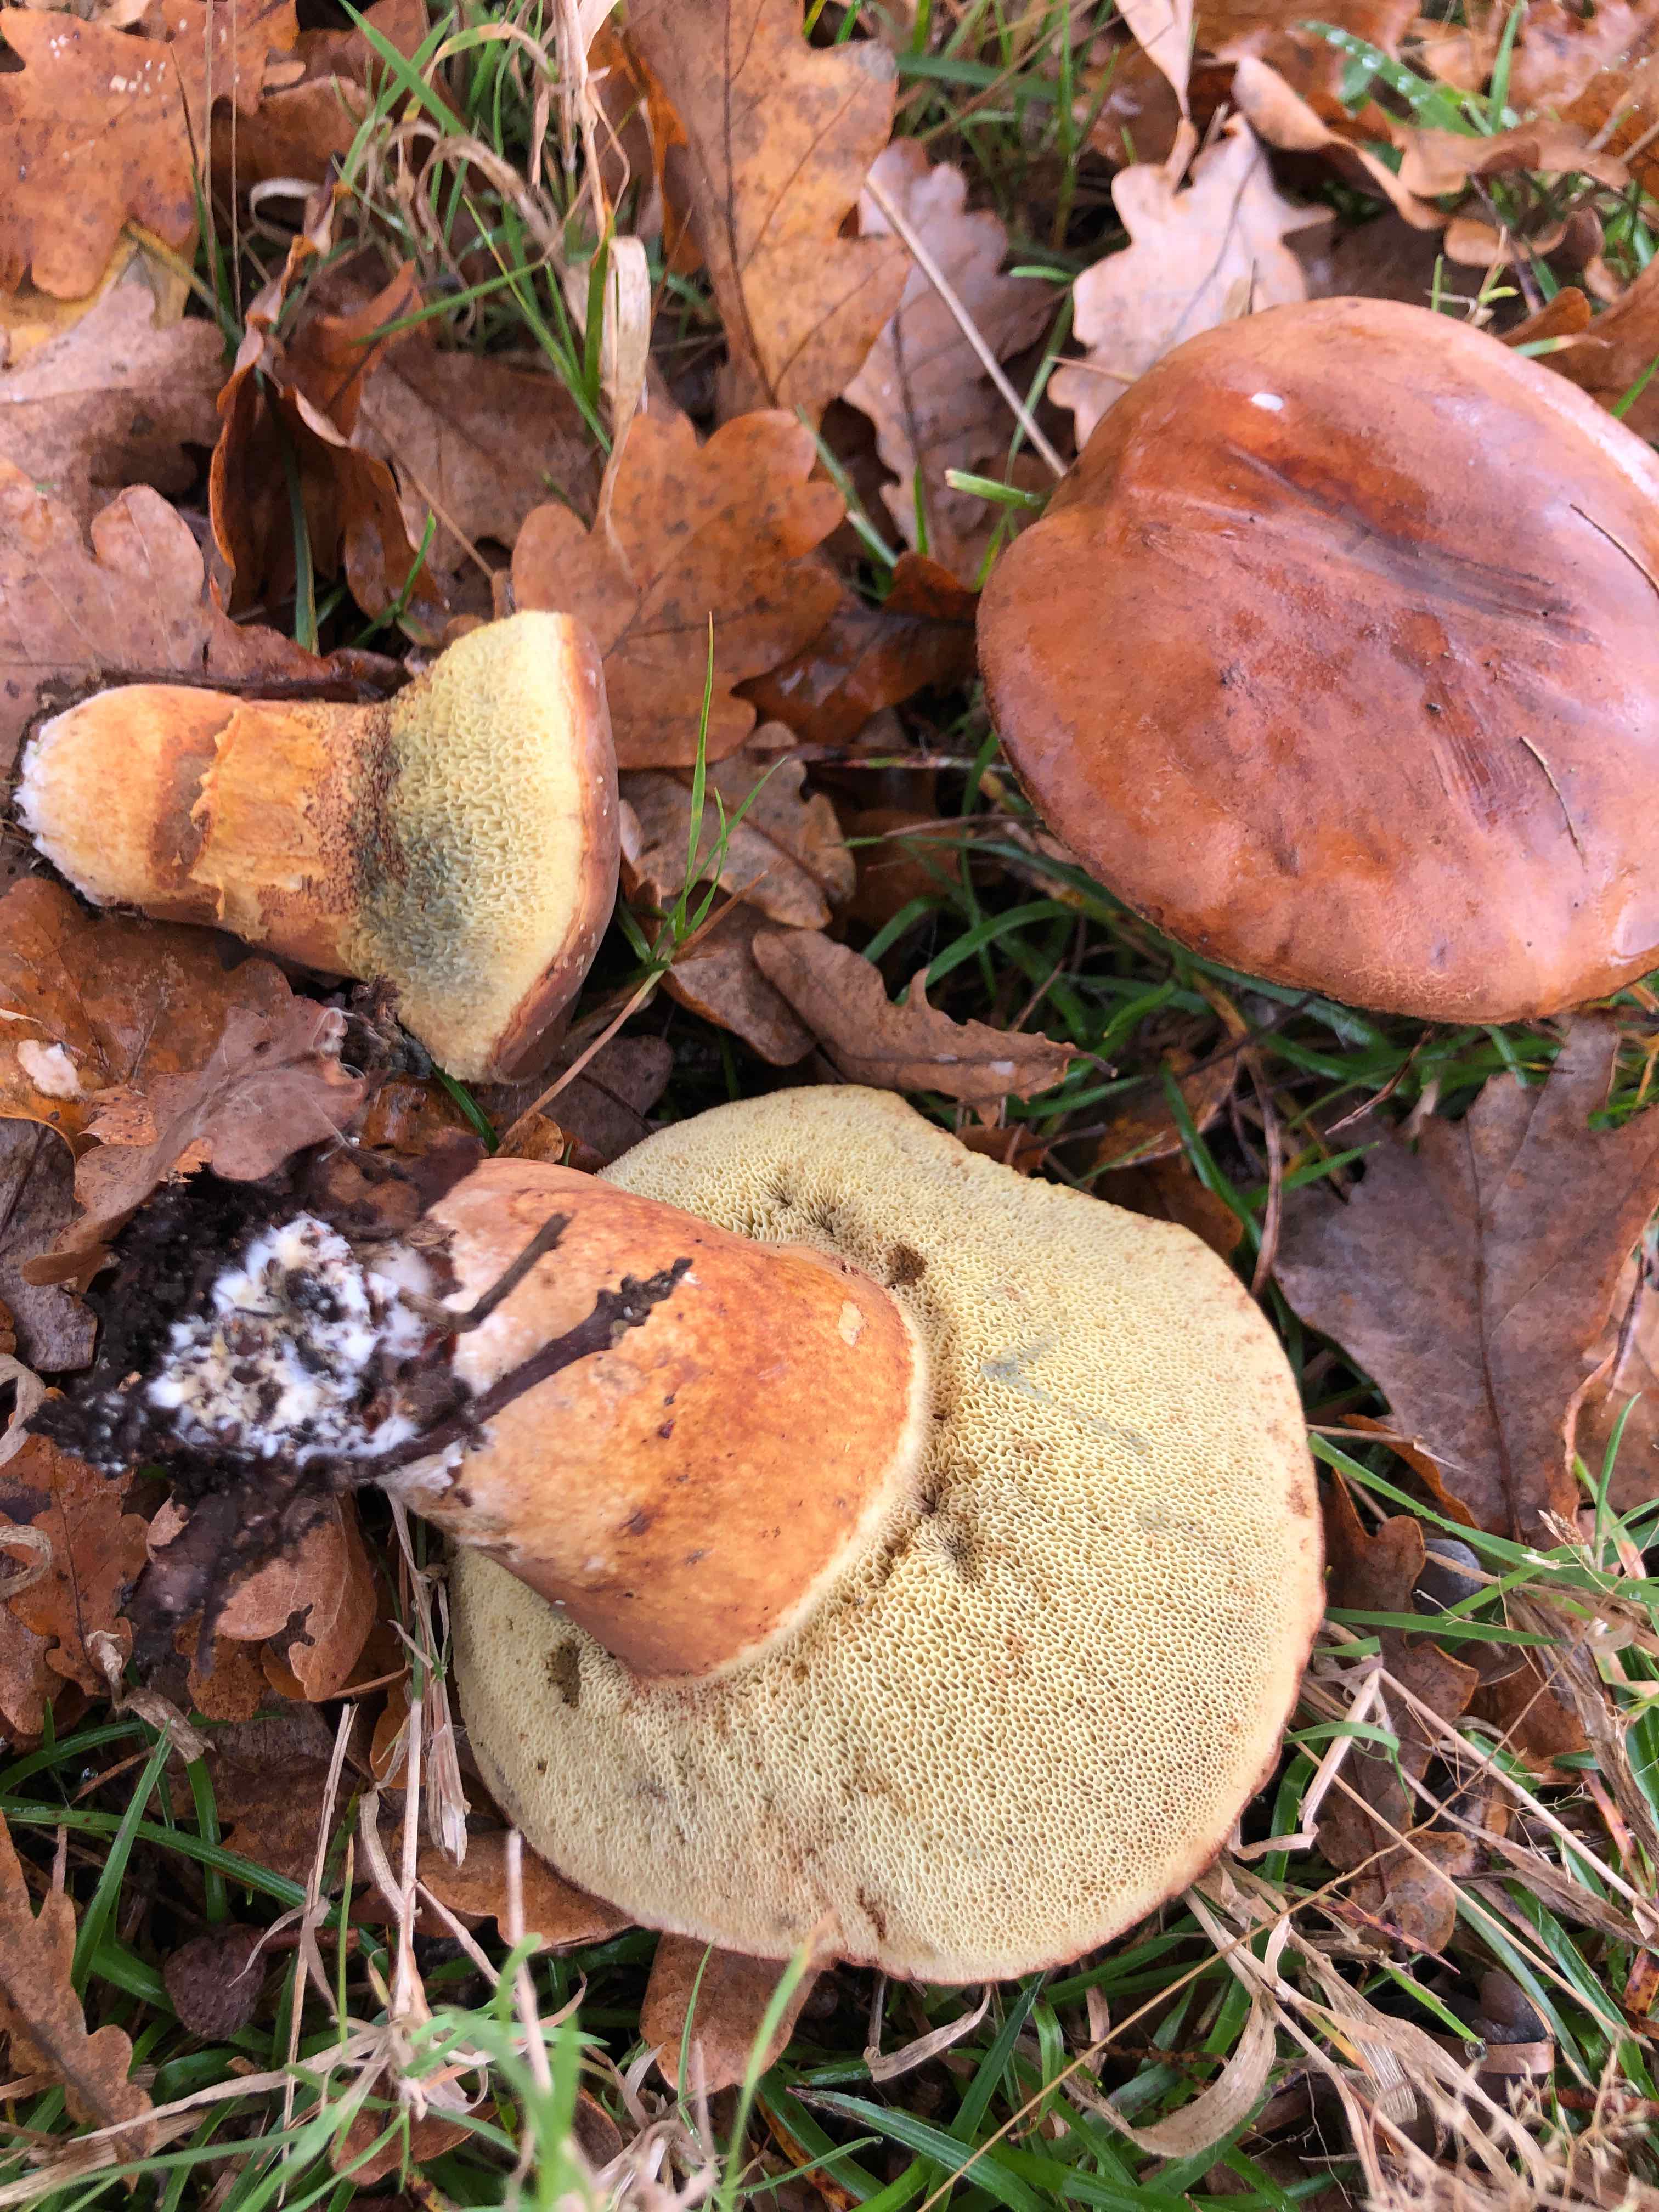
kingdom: Fungi
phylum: Basidiomycota
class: Agaricomycetes
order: Boletales
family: Boletaceae
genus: Imleria
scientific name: Imleria badia
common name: brunstokket rørhat
